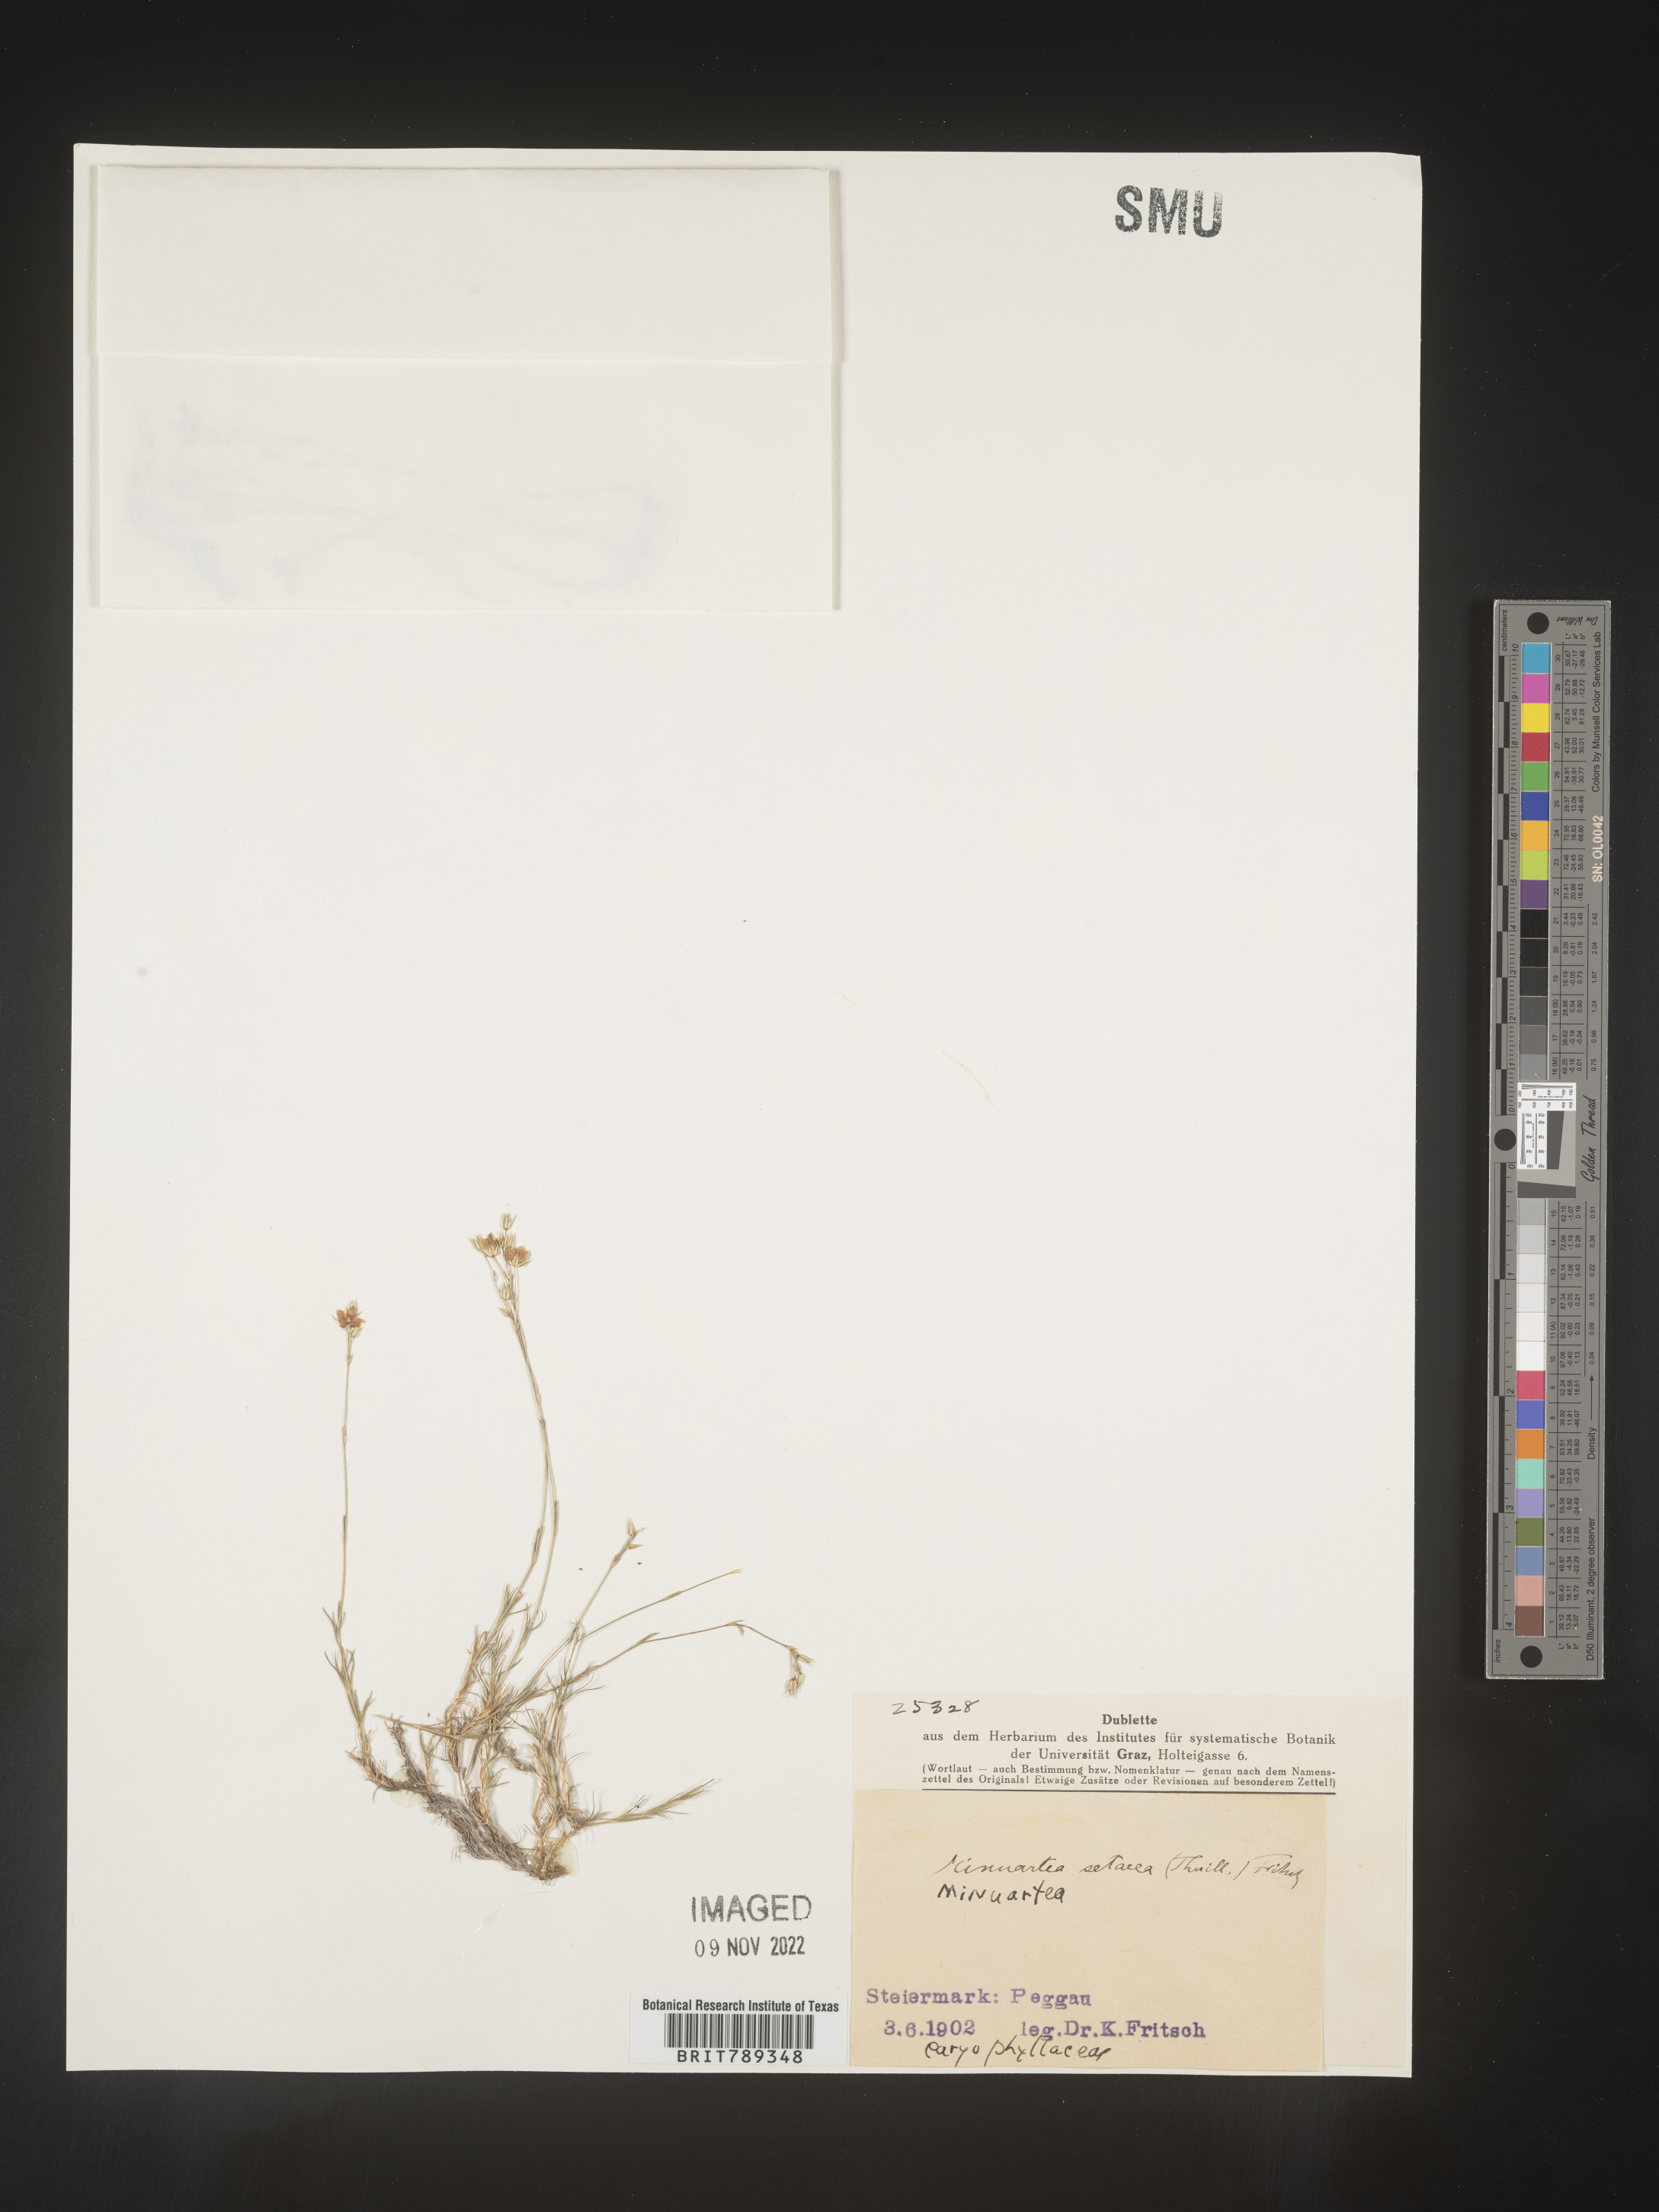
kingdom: Plantae
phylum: Tracheophyta
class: Magnoliopsida
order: Caryophyllales
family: Caryophyllaceae
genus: Arenaria
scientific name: Arenaria
